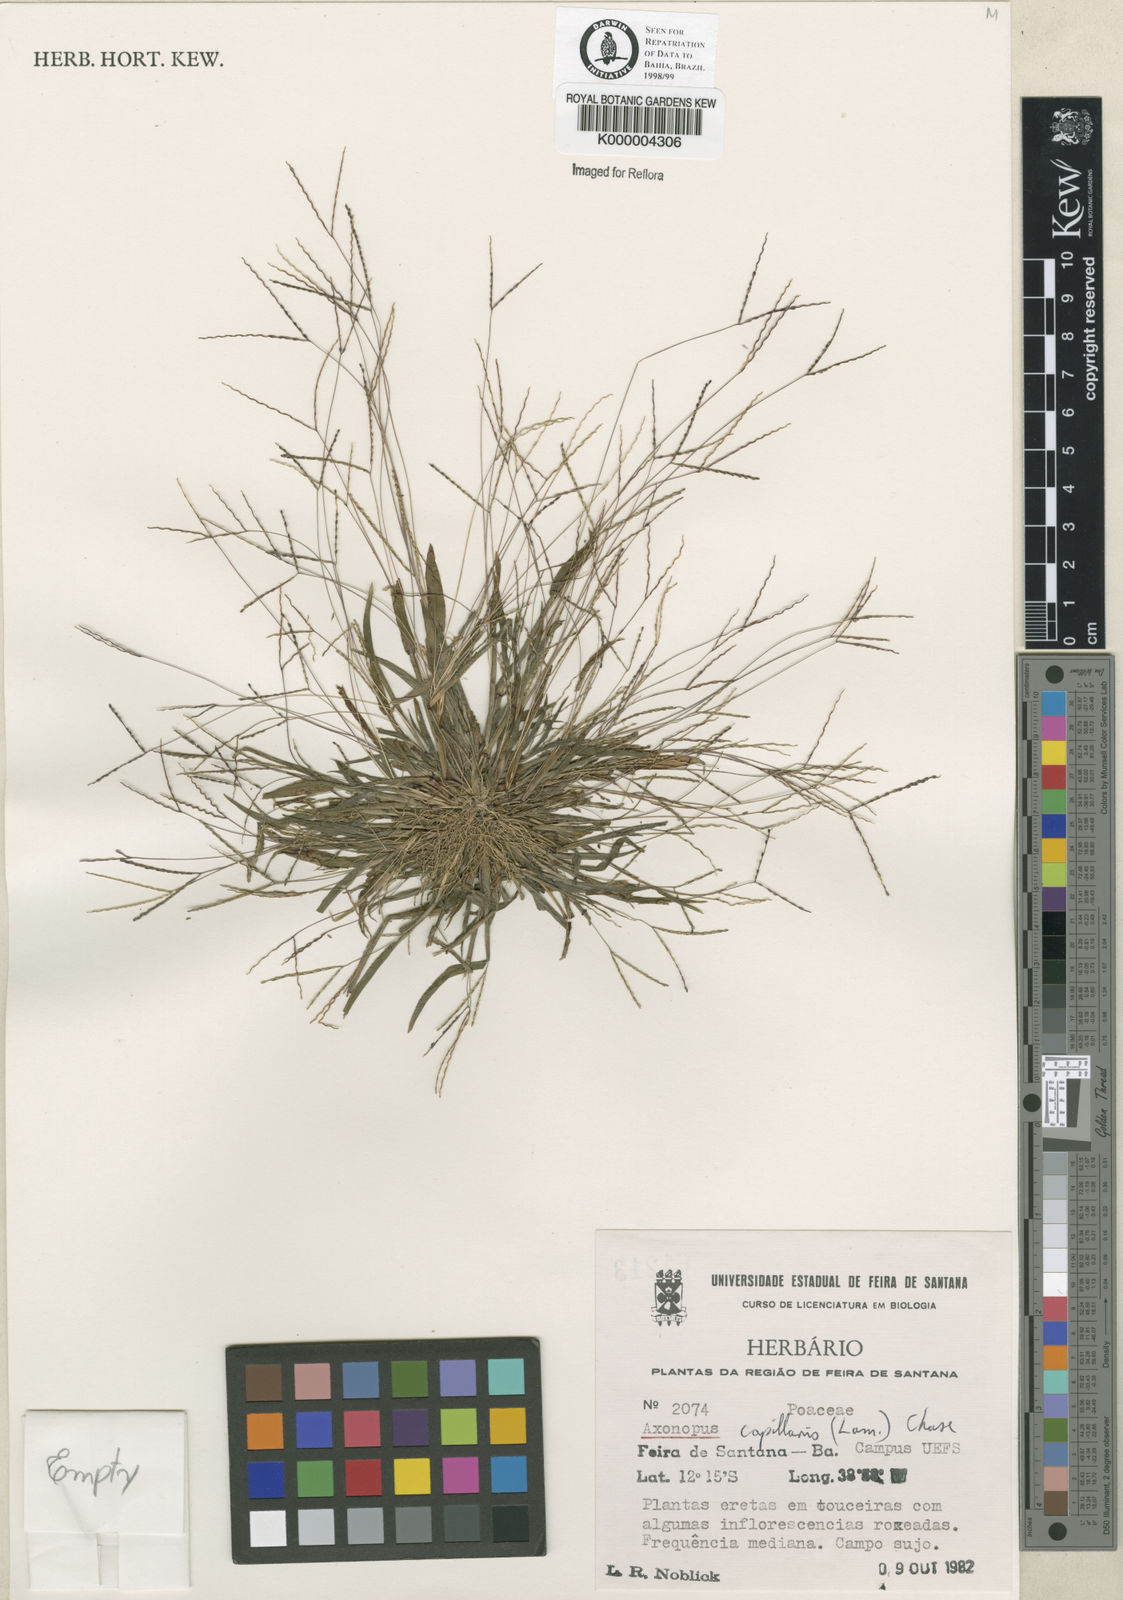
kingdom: Plantae
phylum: Tracheophyta
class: Liliopsida
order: Poales
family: Poaceae
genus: Axonopus
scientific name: Axonopus capillaris
